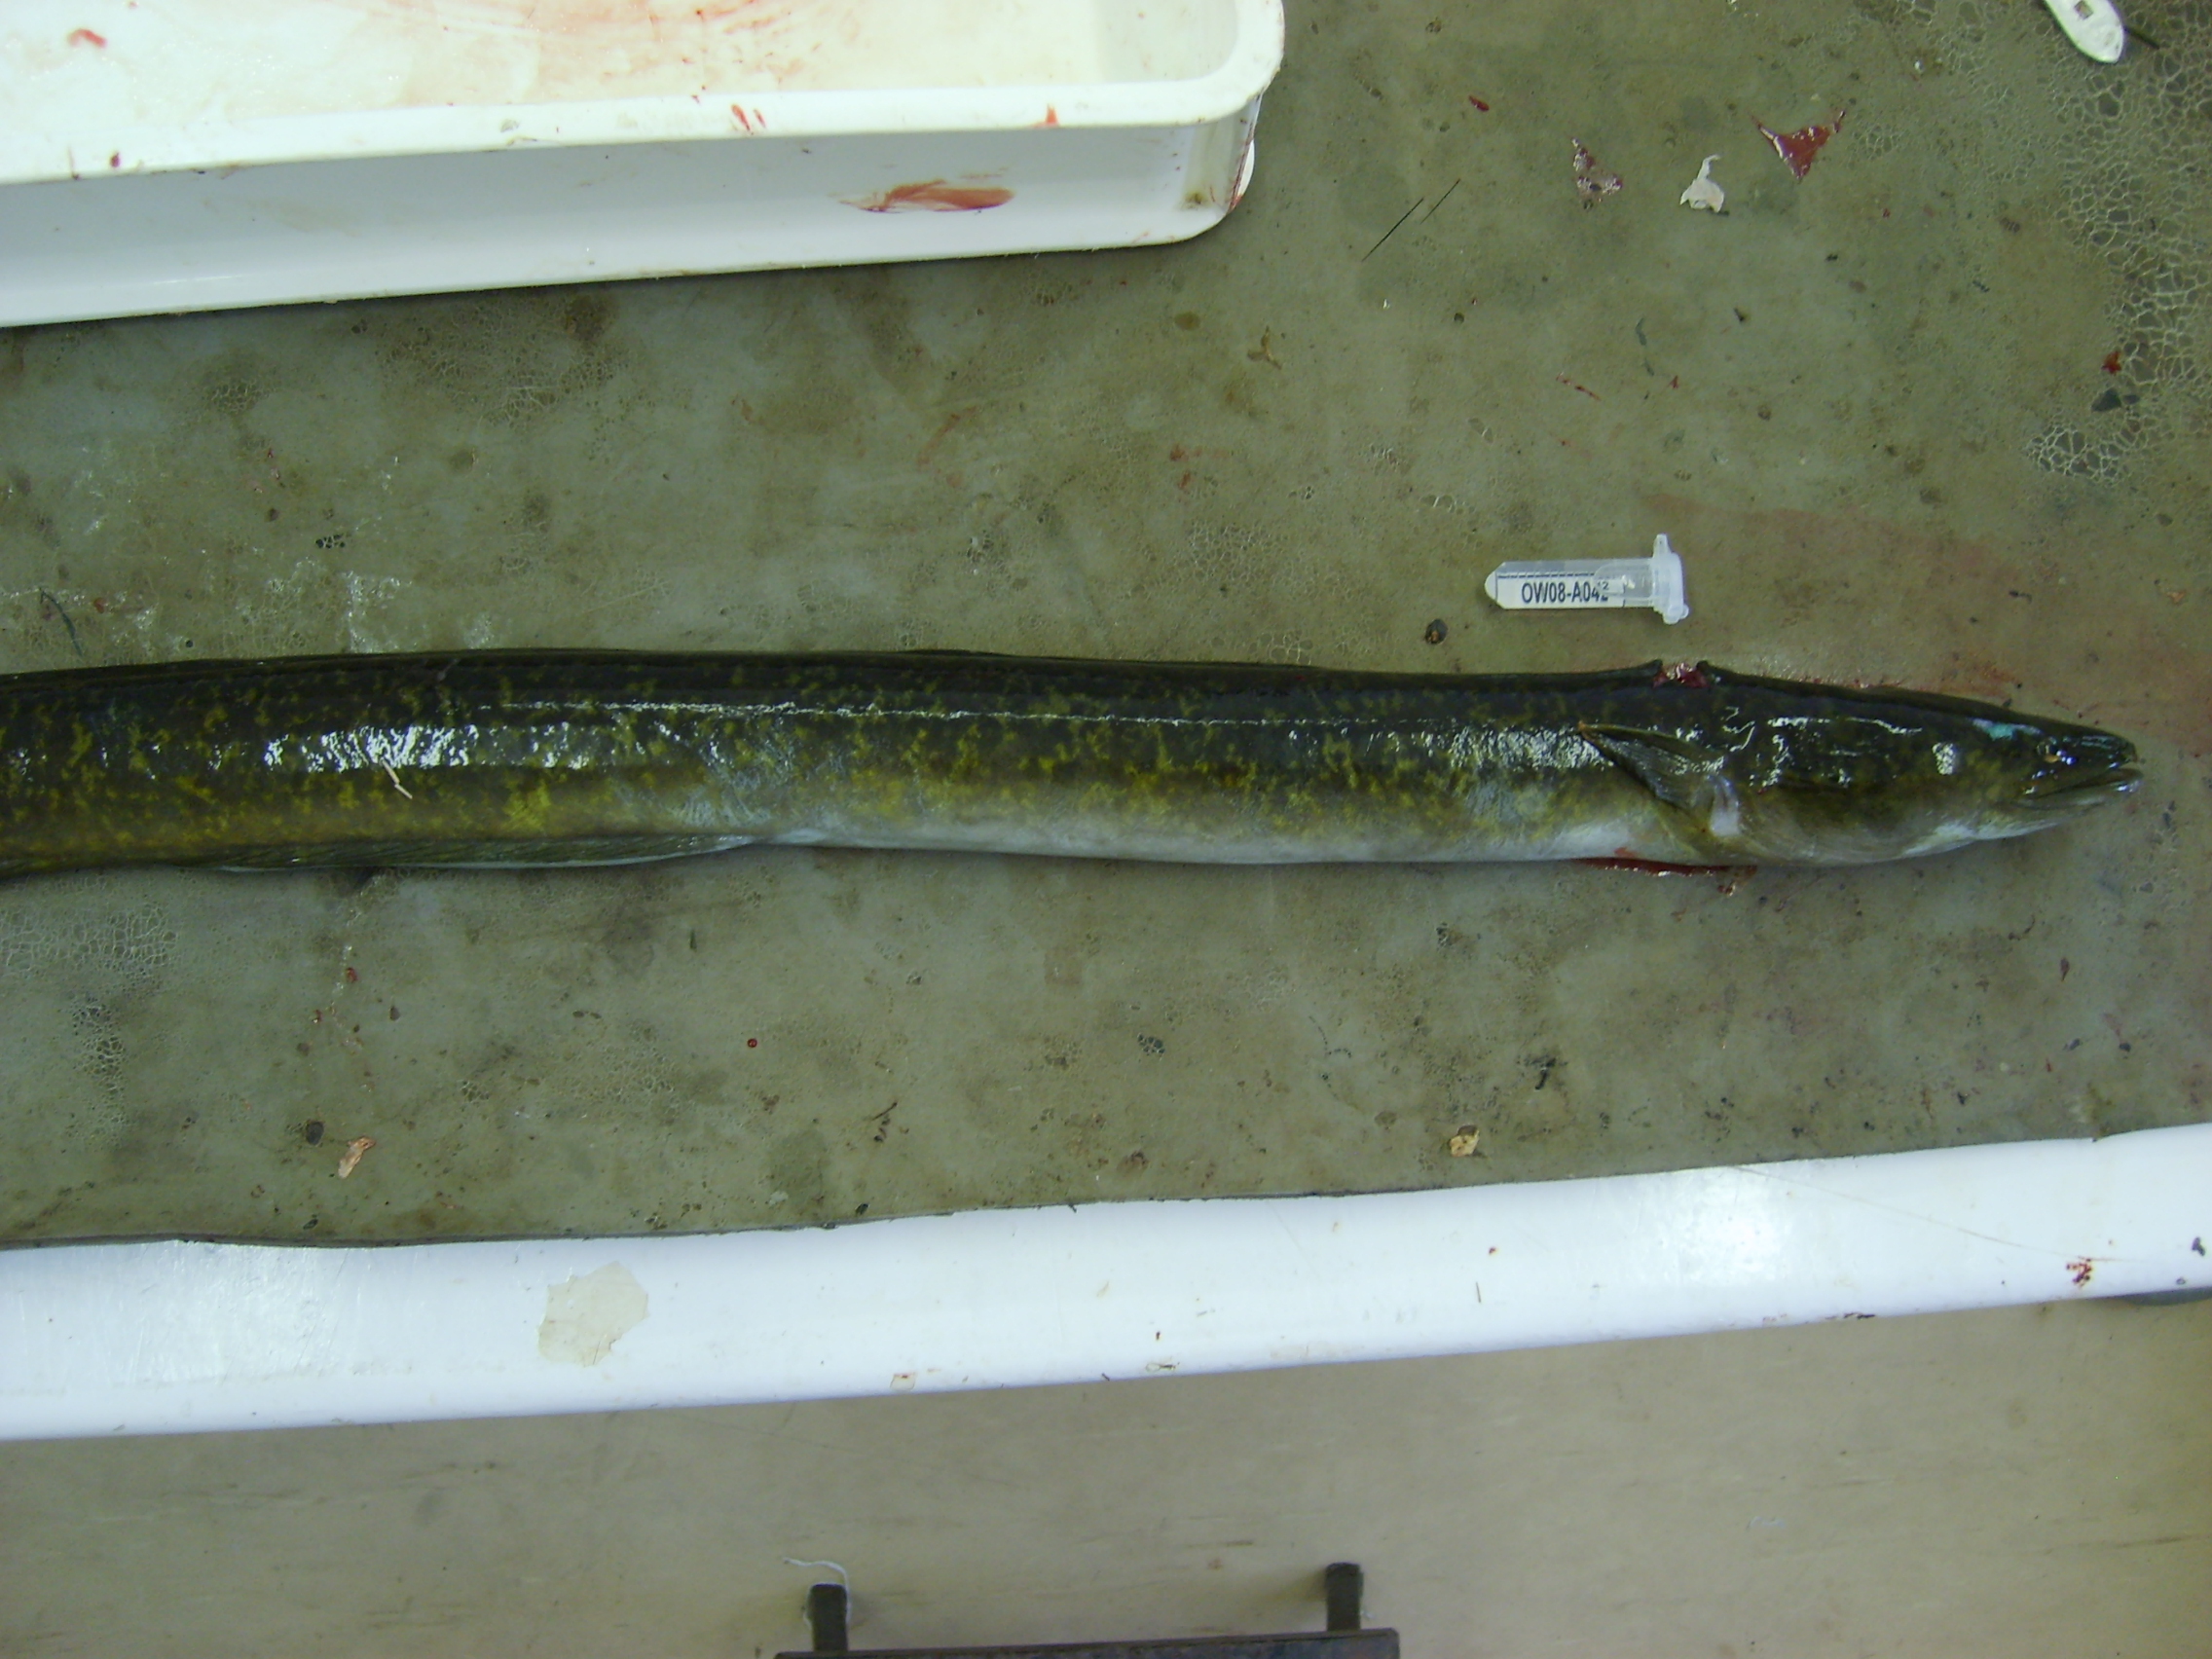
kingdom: Animalia
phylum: Chordata
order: Anguilliformes
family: Anguillidae
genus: Anguilla
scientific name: Anguilla marmorata
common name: Giant mottled eel
